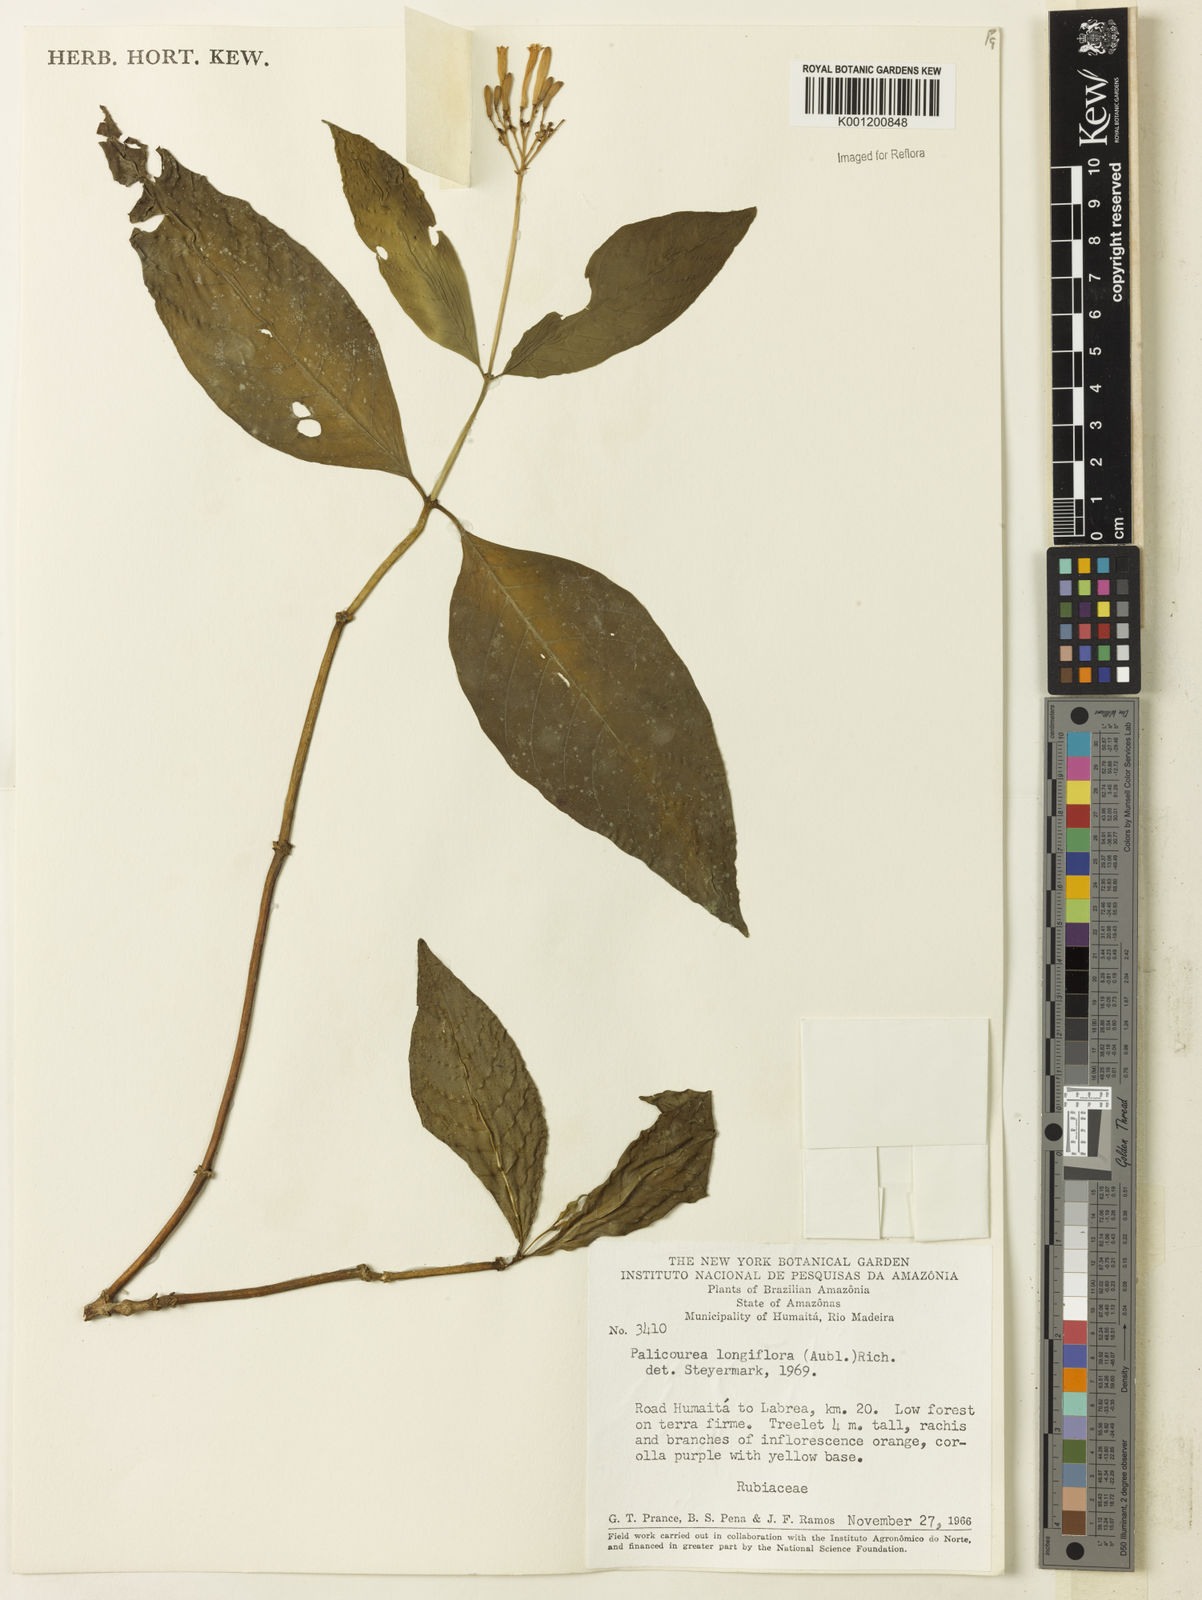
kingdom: Plantae
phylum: Tracheophyta
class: Magnoliopsida
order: Gentianales
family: Rubiaceae
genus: Palicourea
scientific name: Palicourea longiflora
